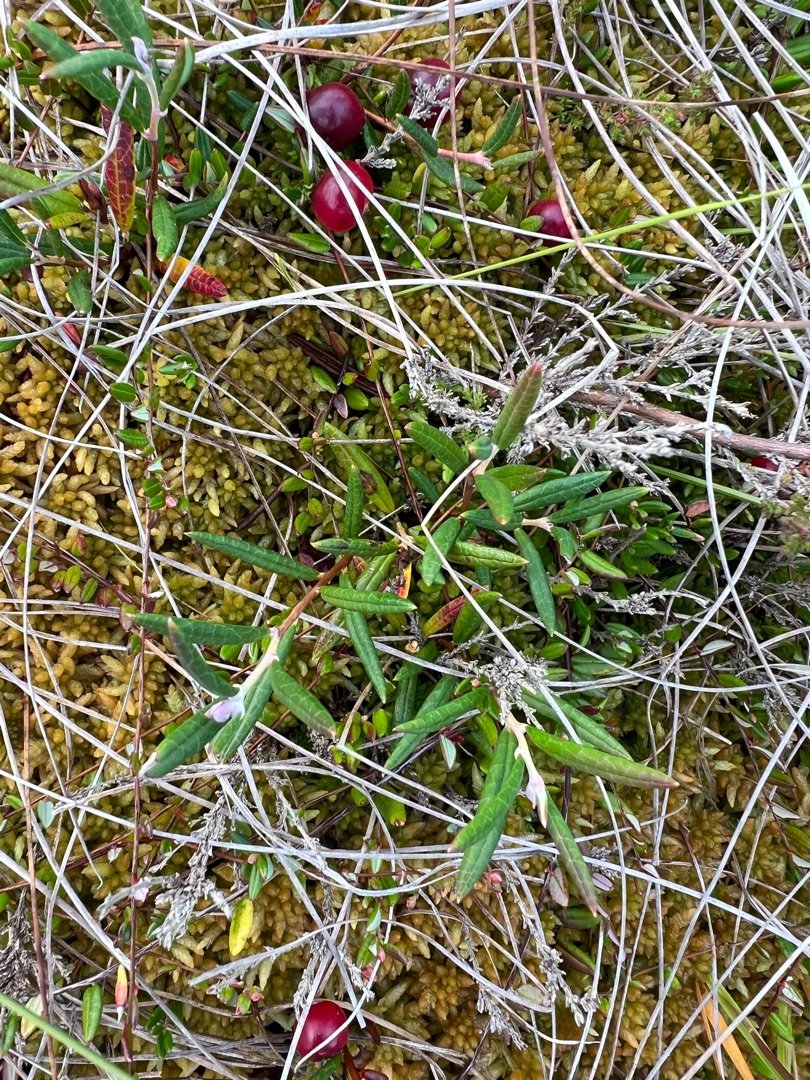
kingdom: Plantae
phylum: Tracheophyta
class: Magnoliopsida
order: Ericales
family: Ericaceae
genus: Andromeda
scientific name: Andromeda polifolia
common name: Rosmarinlyng
